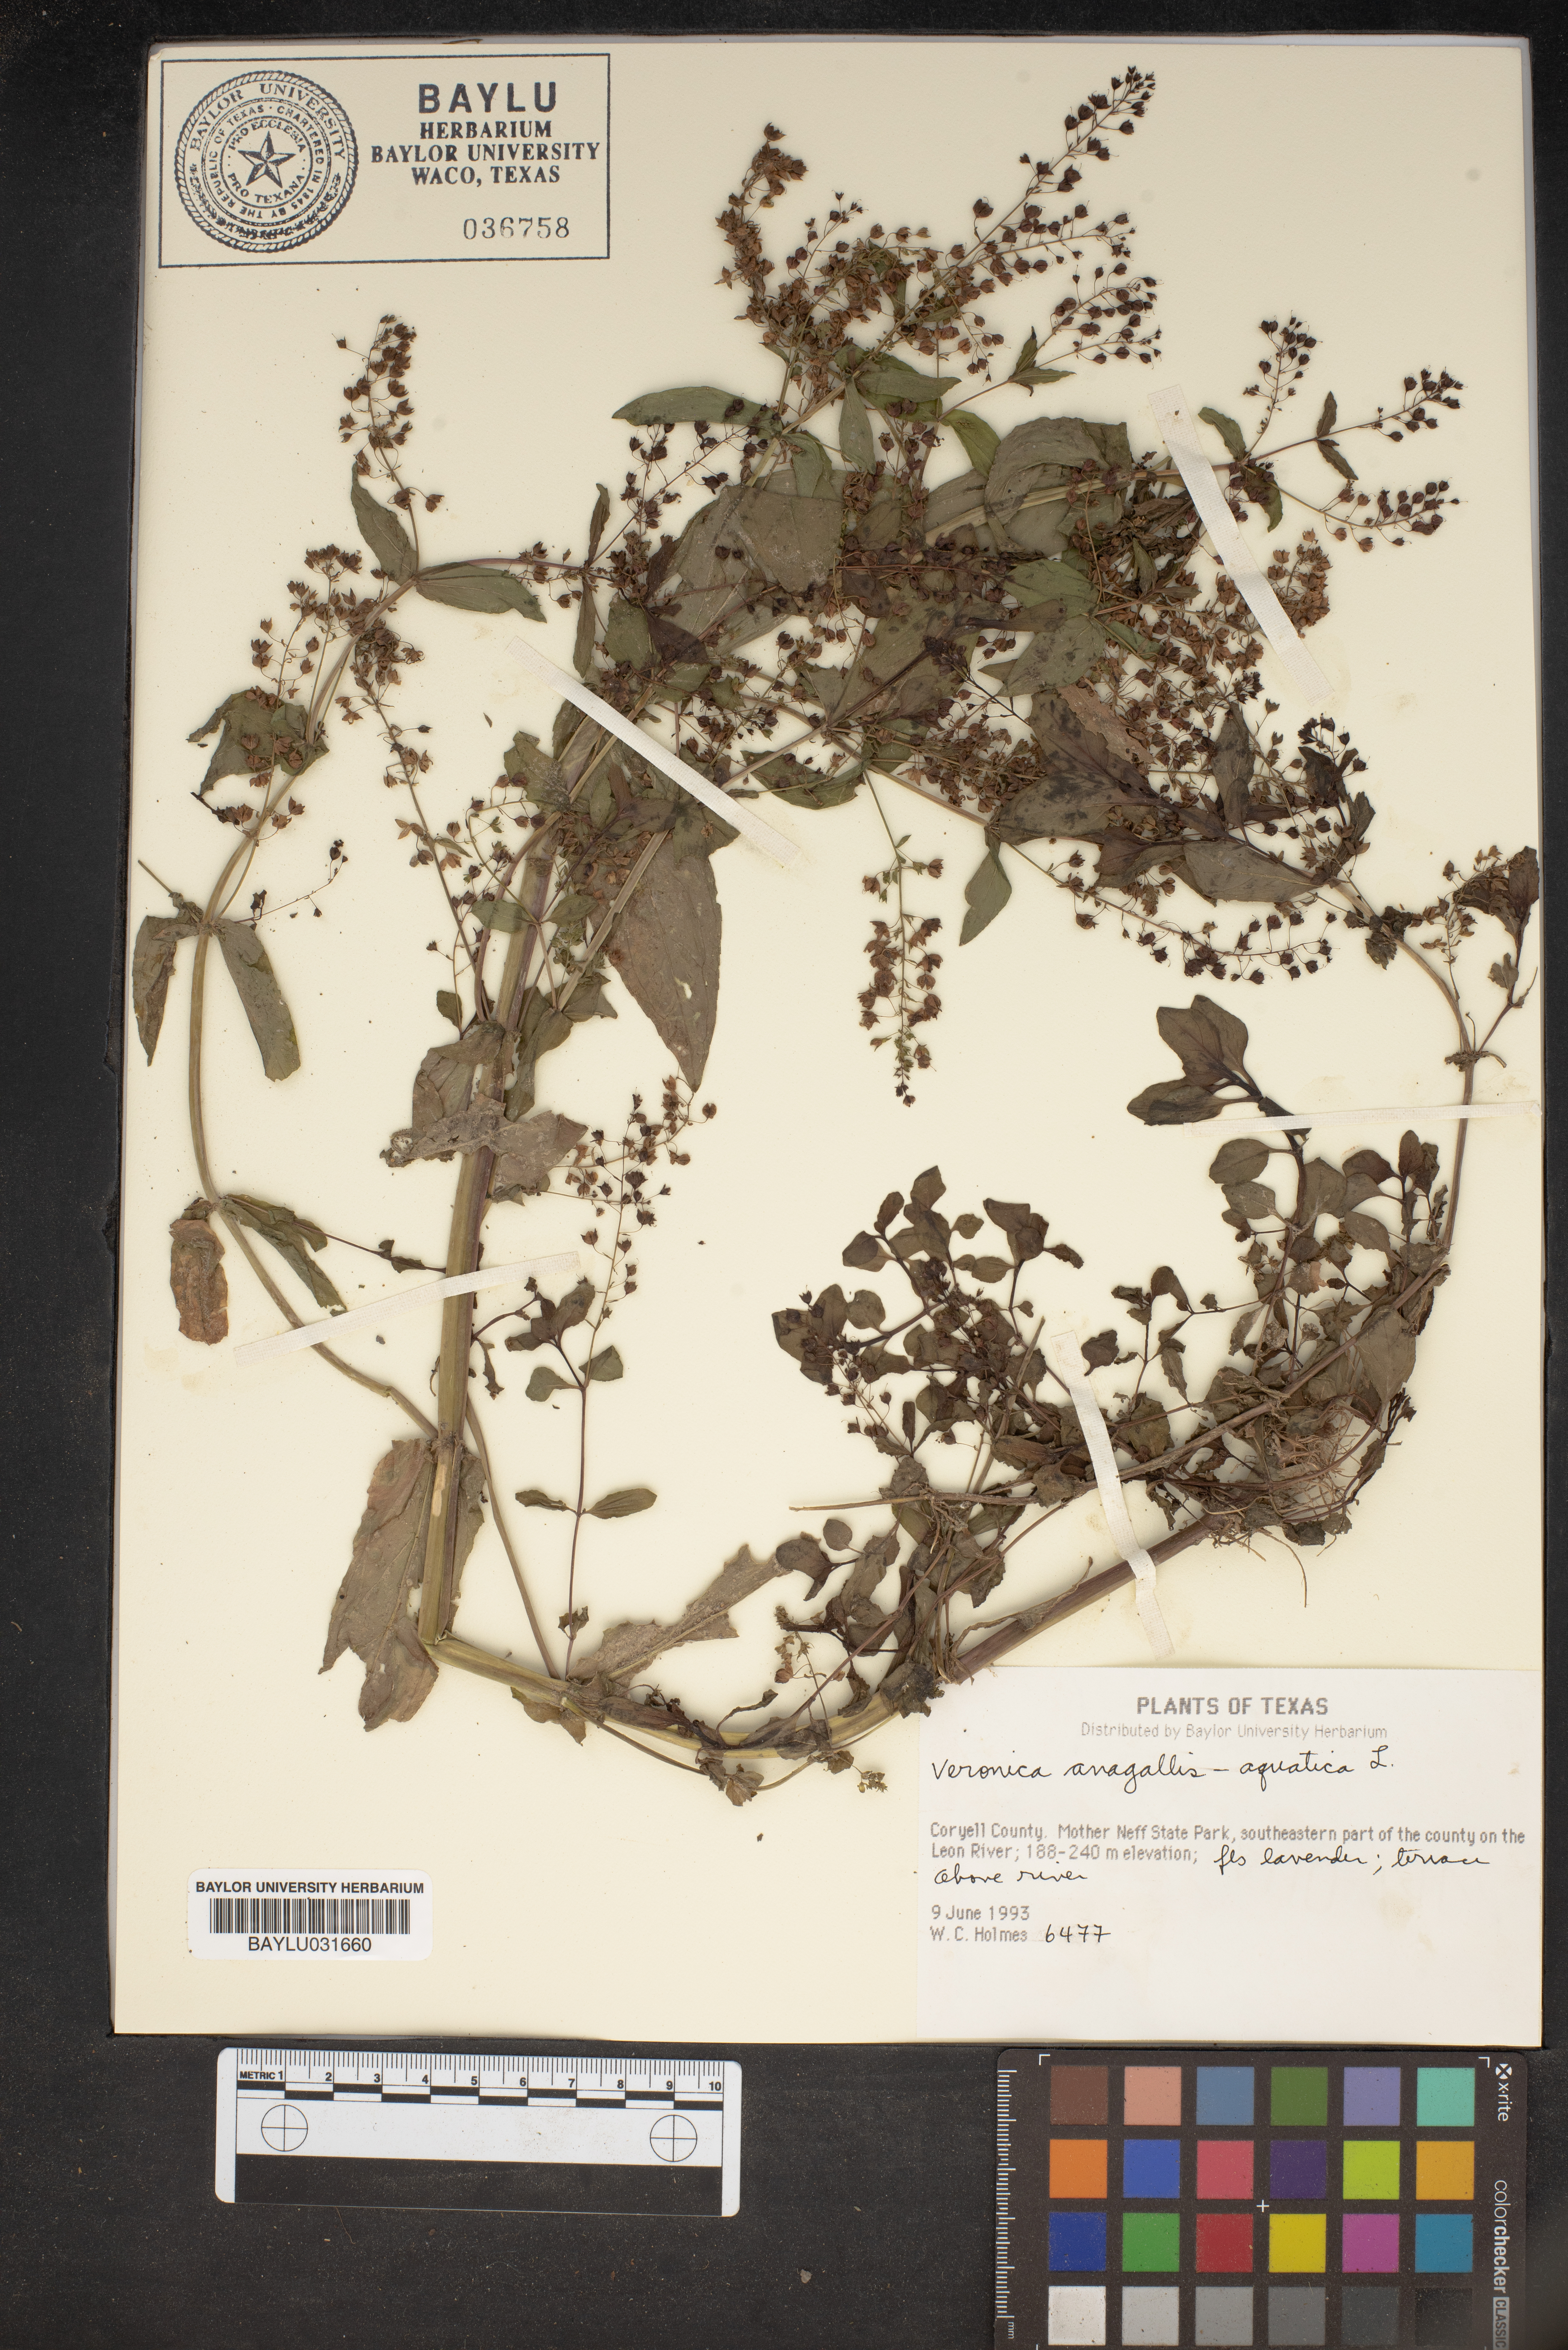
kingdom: Plantae
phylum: Tracheophyta
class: Magnoliopsida
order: Lamiales
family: Plantaginaceae
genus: Veronica
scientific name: Veronica anagallis-aquatica
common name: Water speedwell
